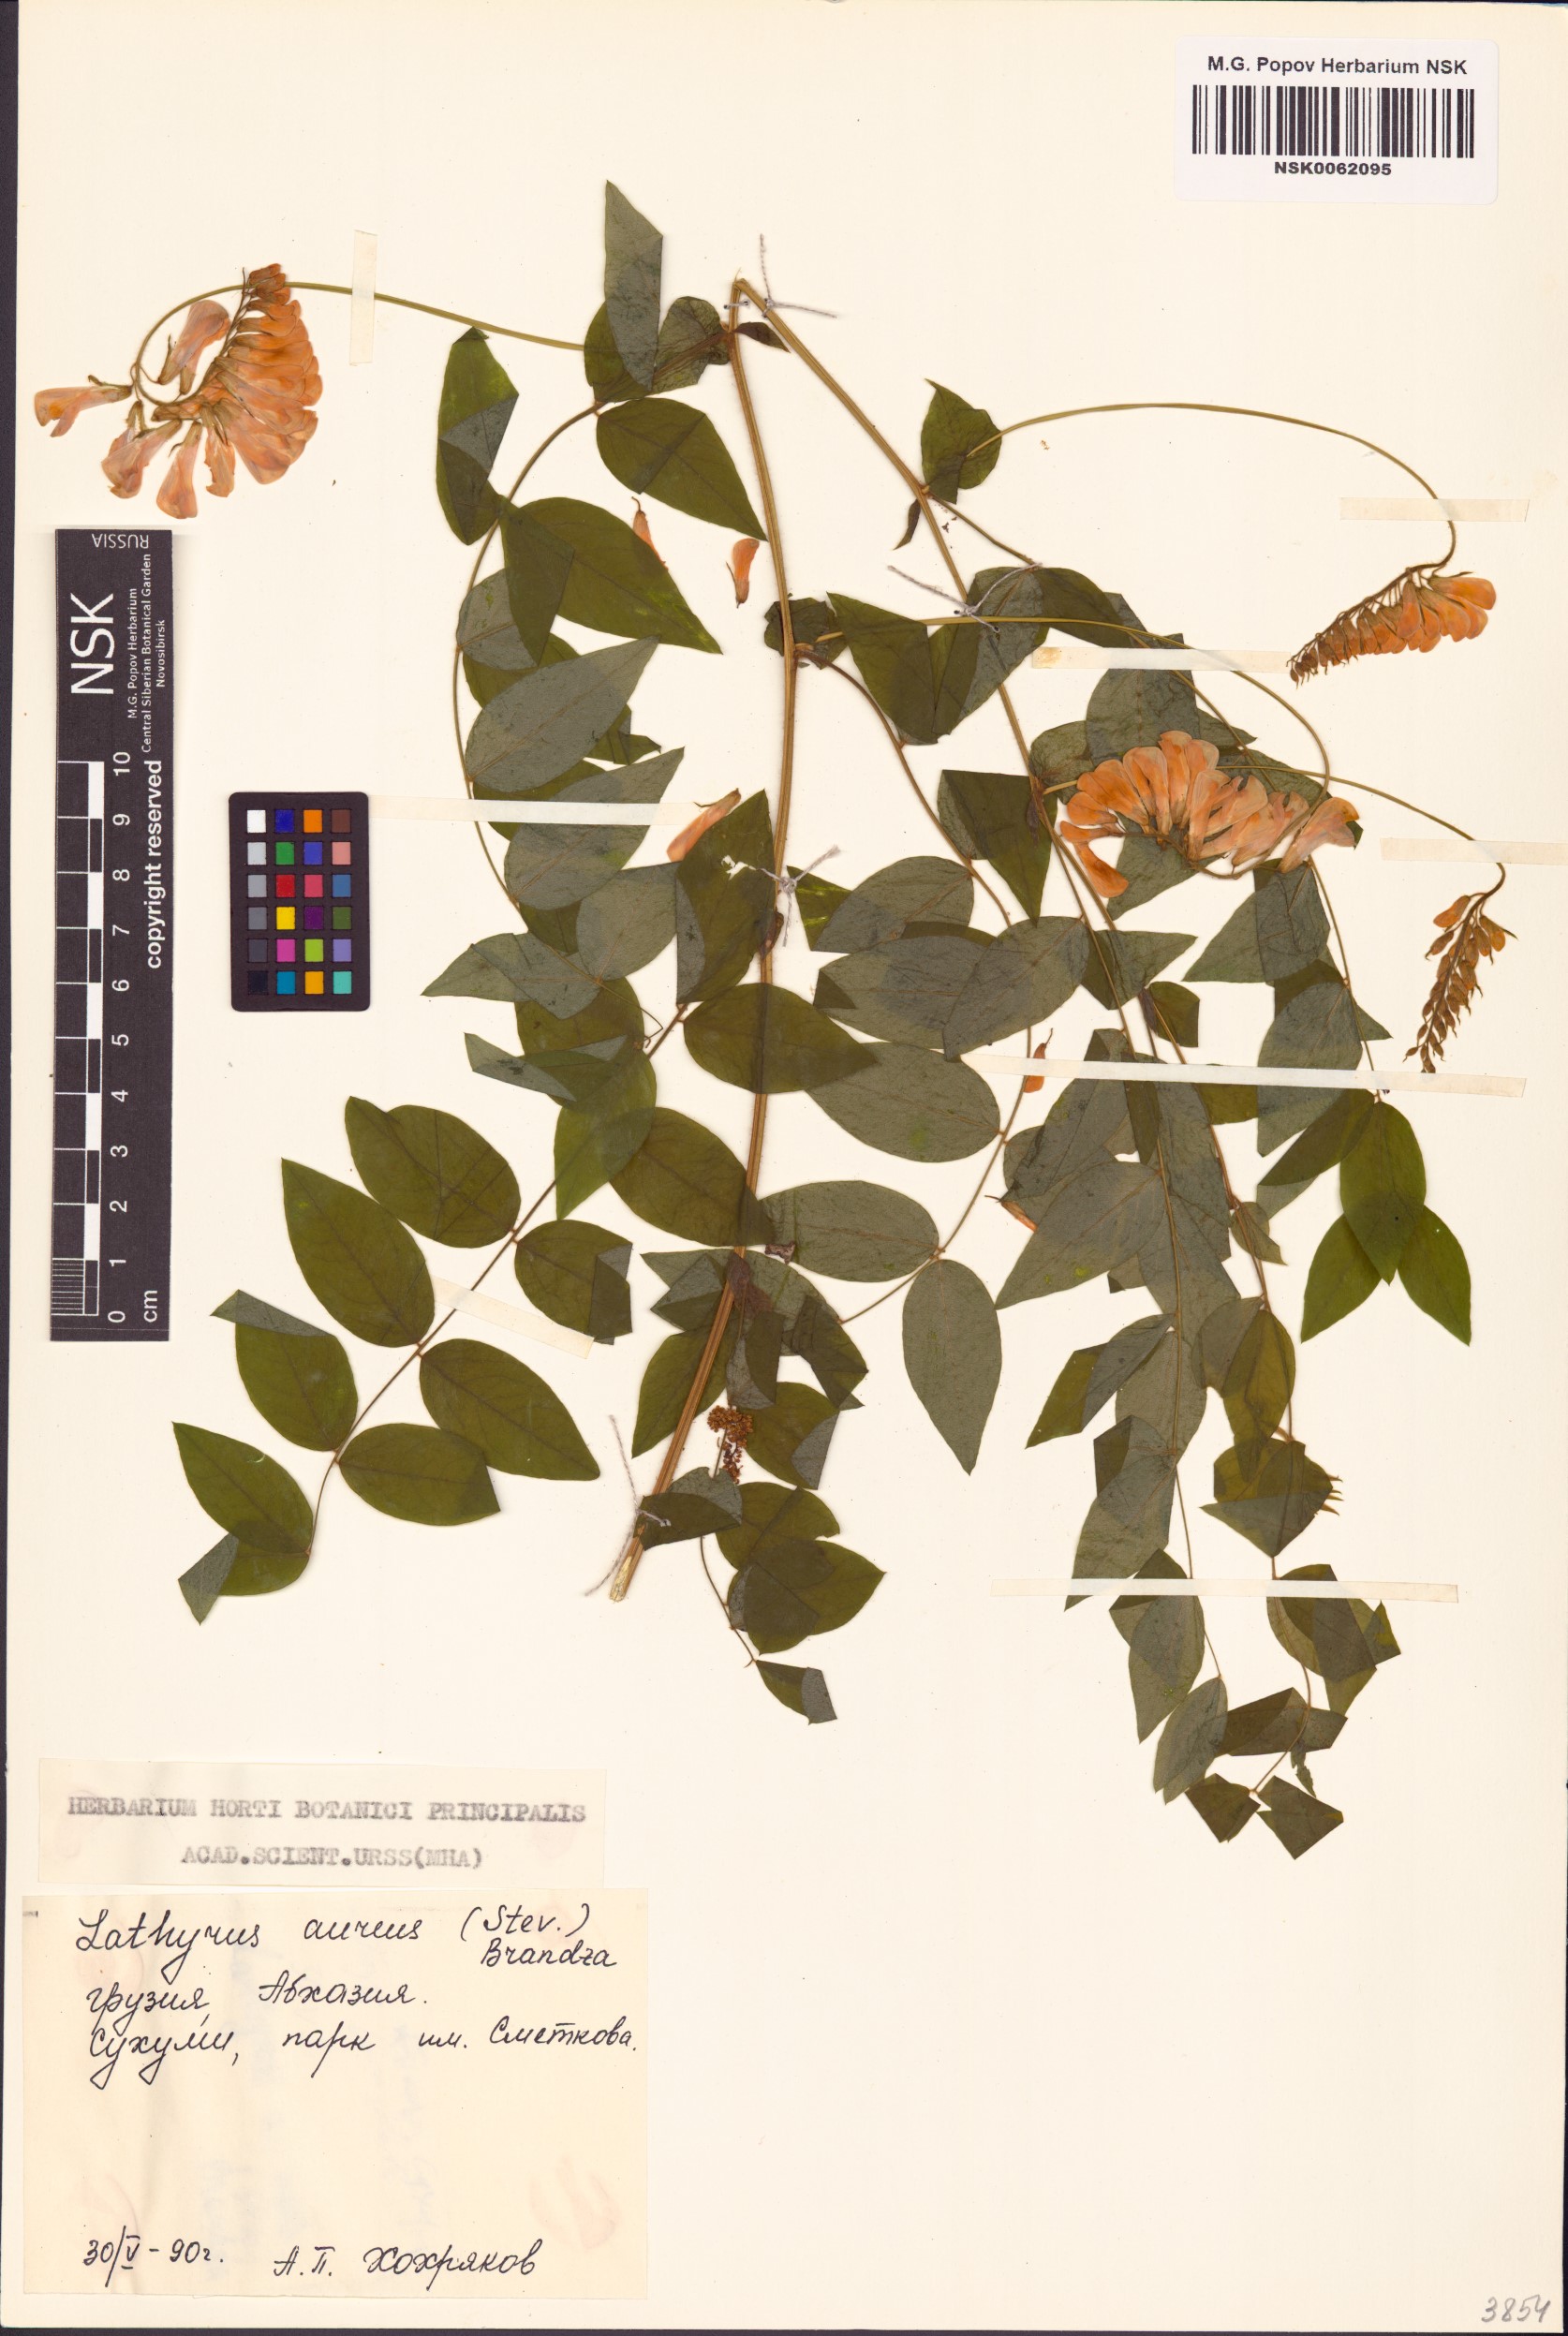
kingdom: Plantae
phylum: Tracheophyta
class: Magnoliopsida
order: Fabales
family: Fabaceae
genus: Lathyrus
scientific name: Lathyrus aureus
